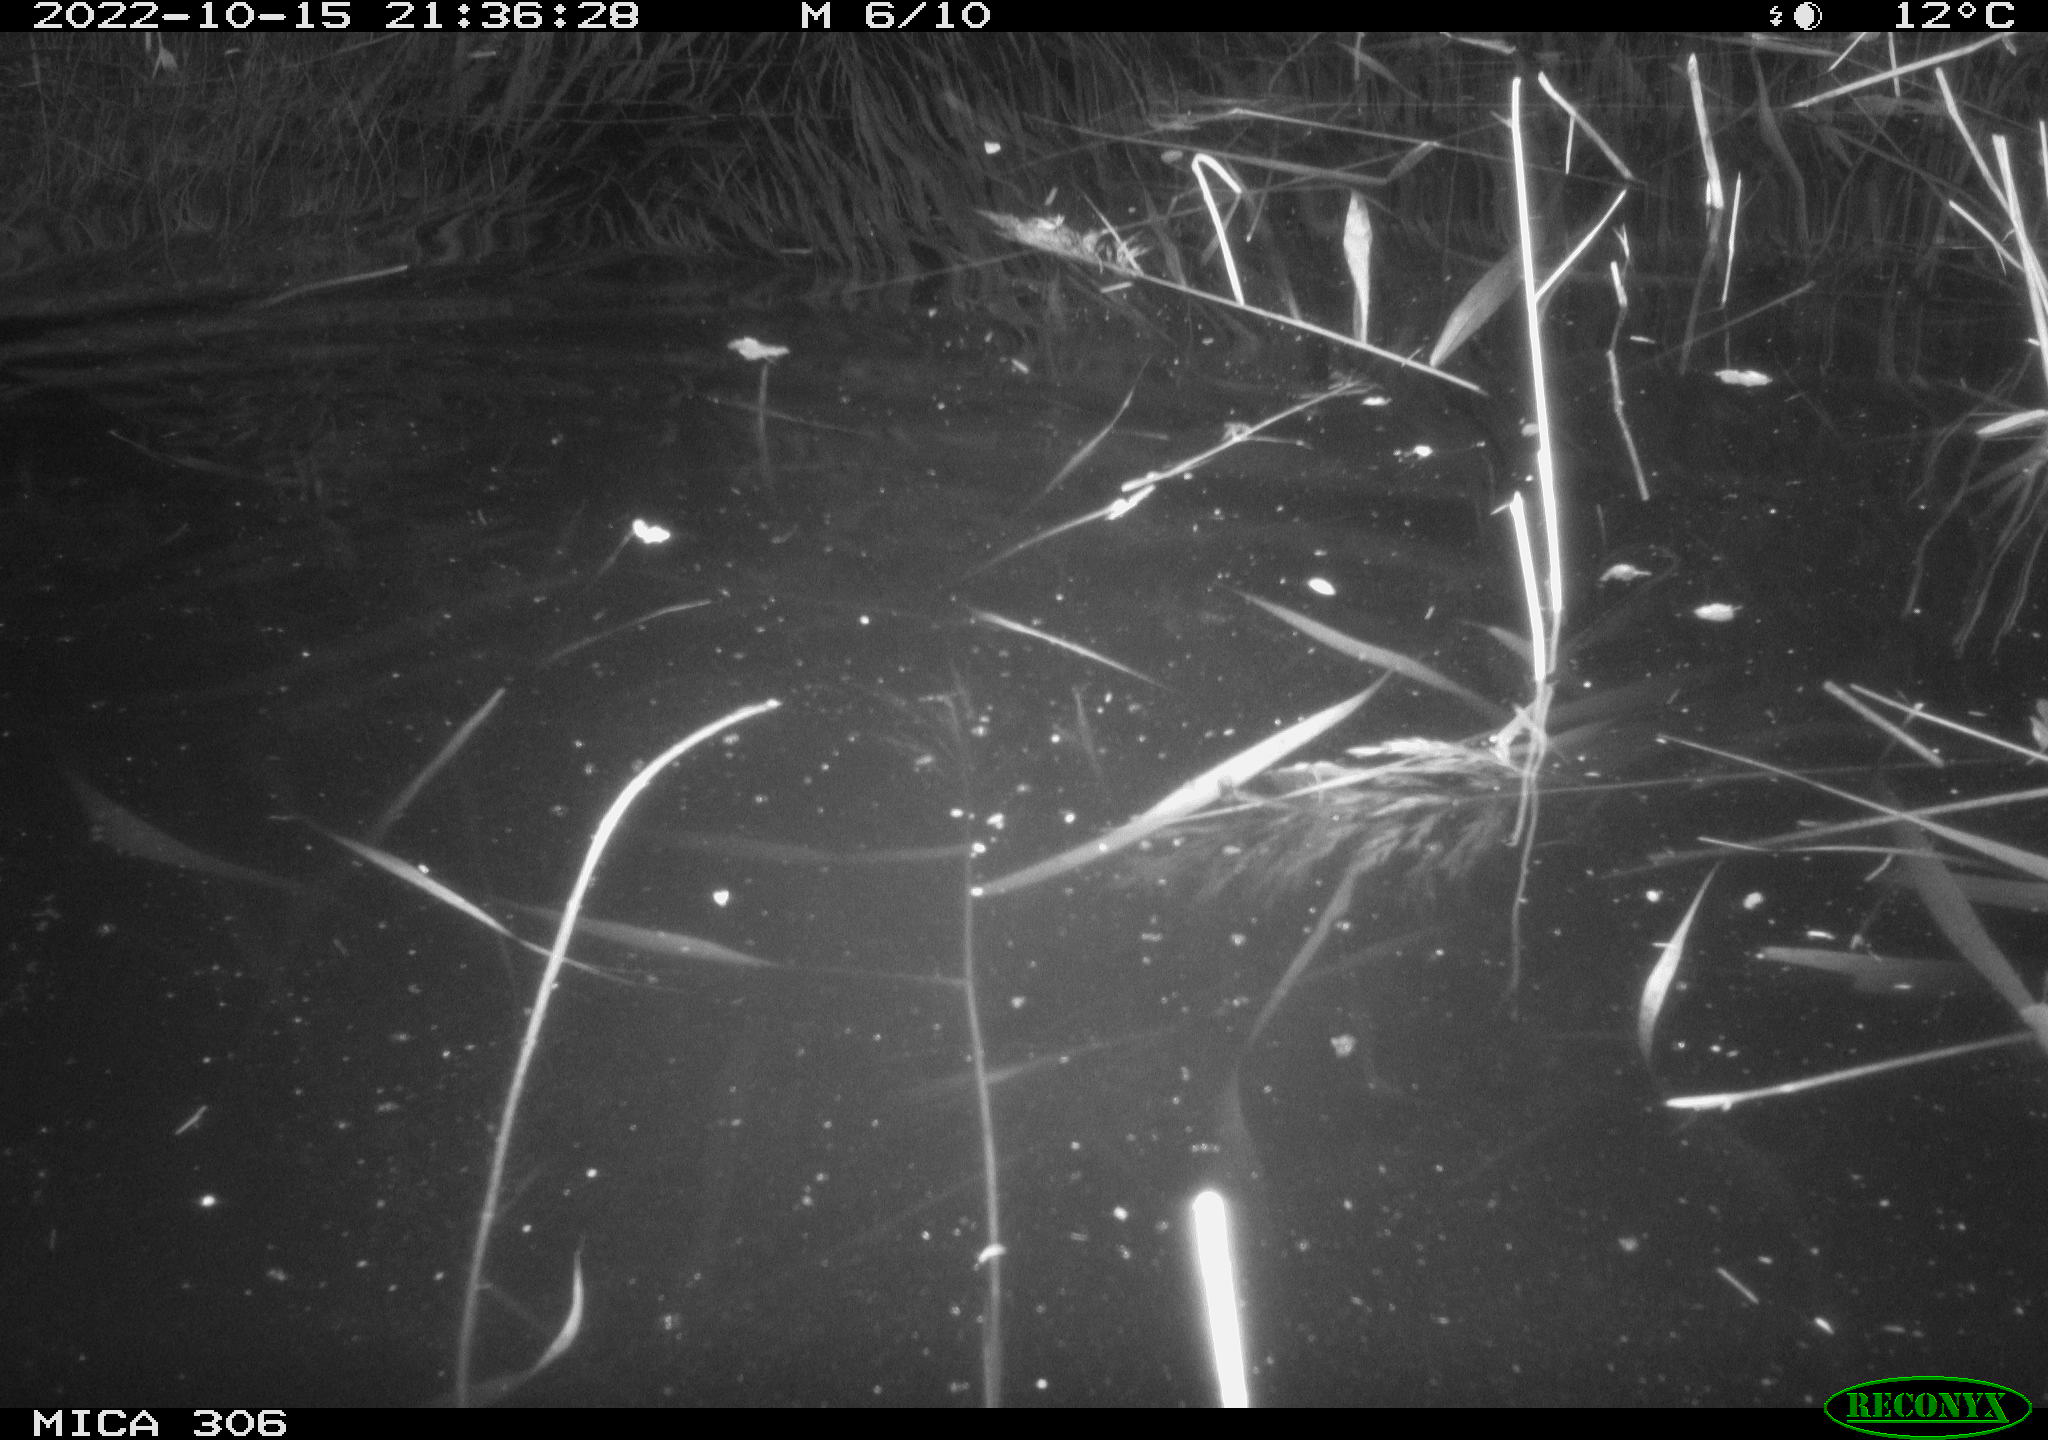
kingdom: Animalia
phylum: Chordata
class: Mammalia
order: Rodentia
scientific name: Rodentia
